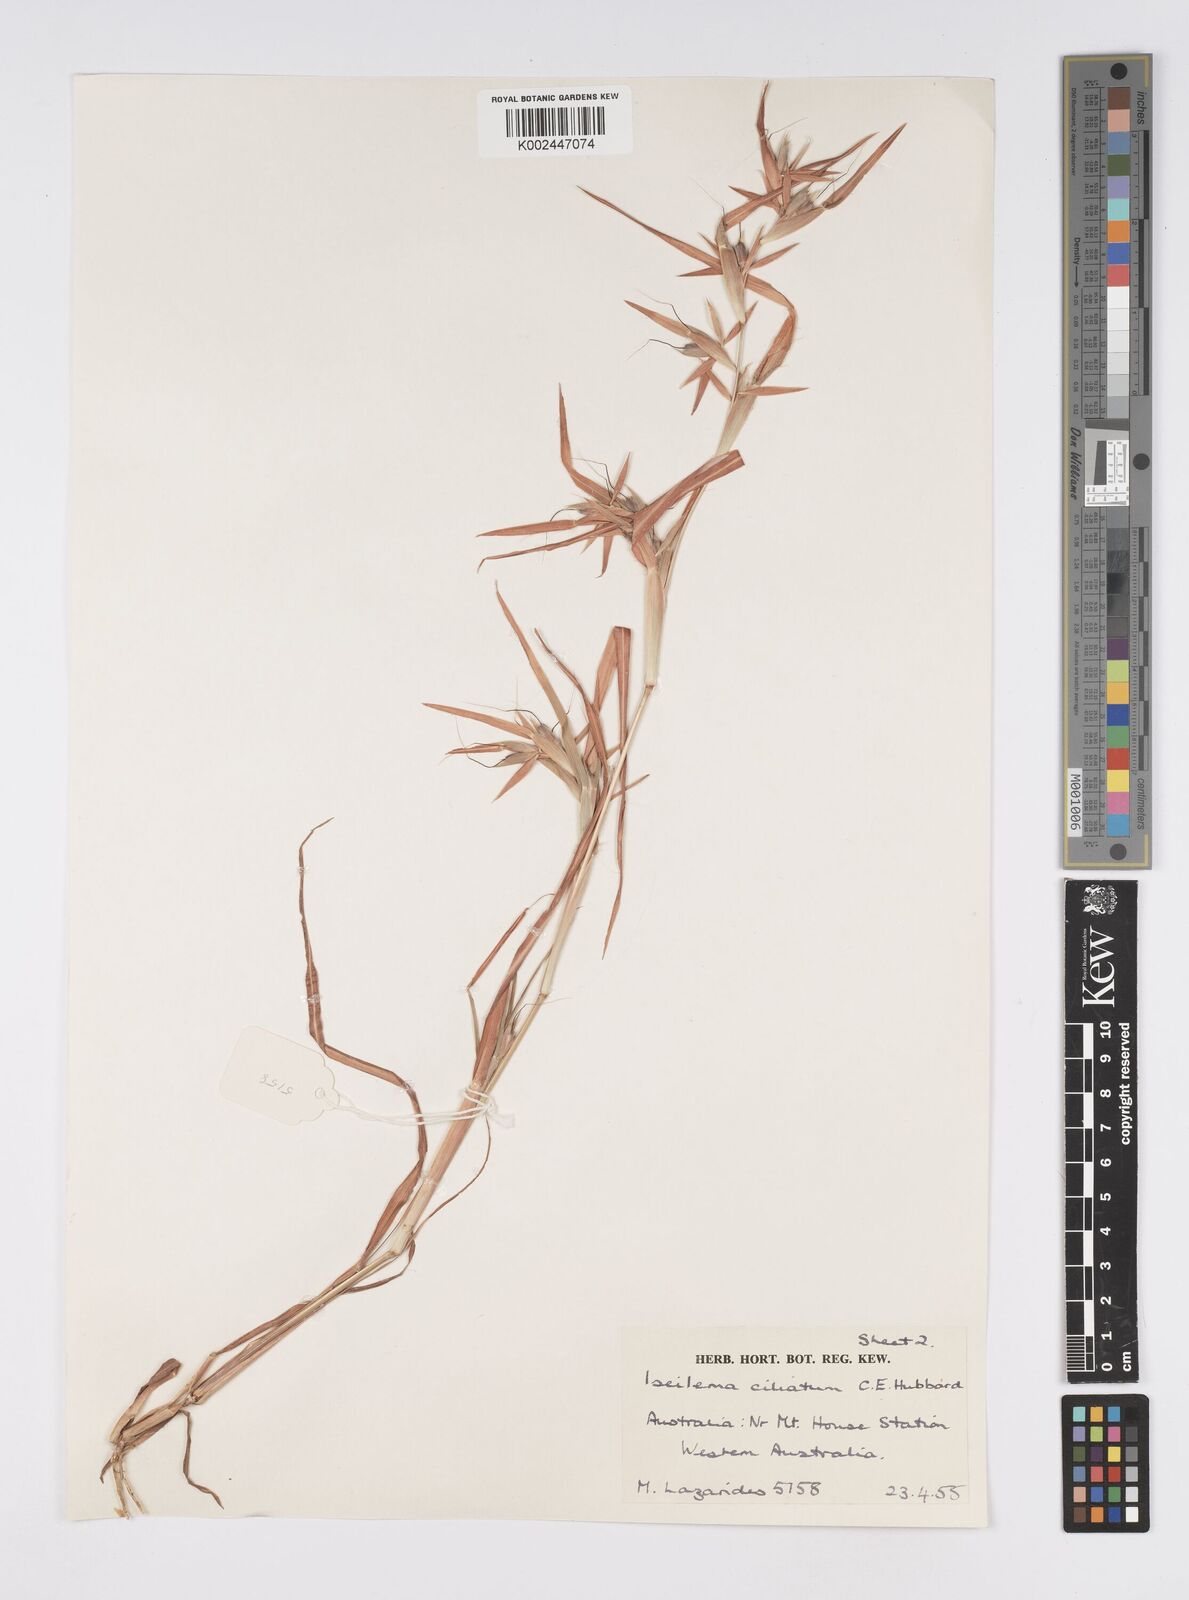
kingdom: Plantae
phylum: Tracheophyta
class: Liliopsida
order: Poales
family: Poaceae
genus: Iseilema
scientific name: Iseilema ciliatum
